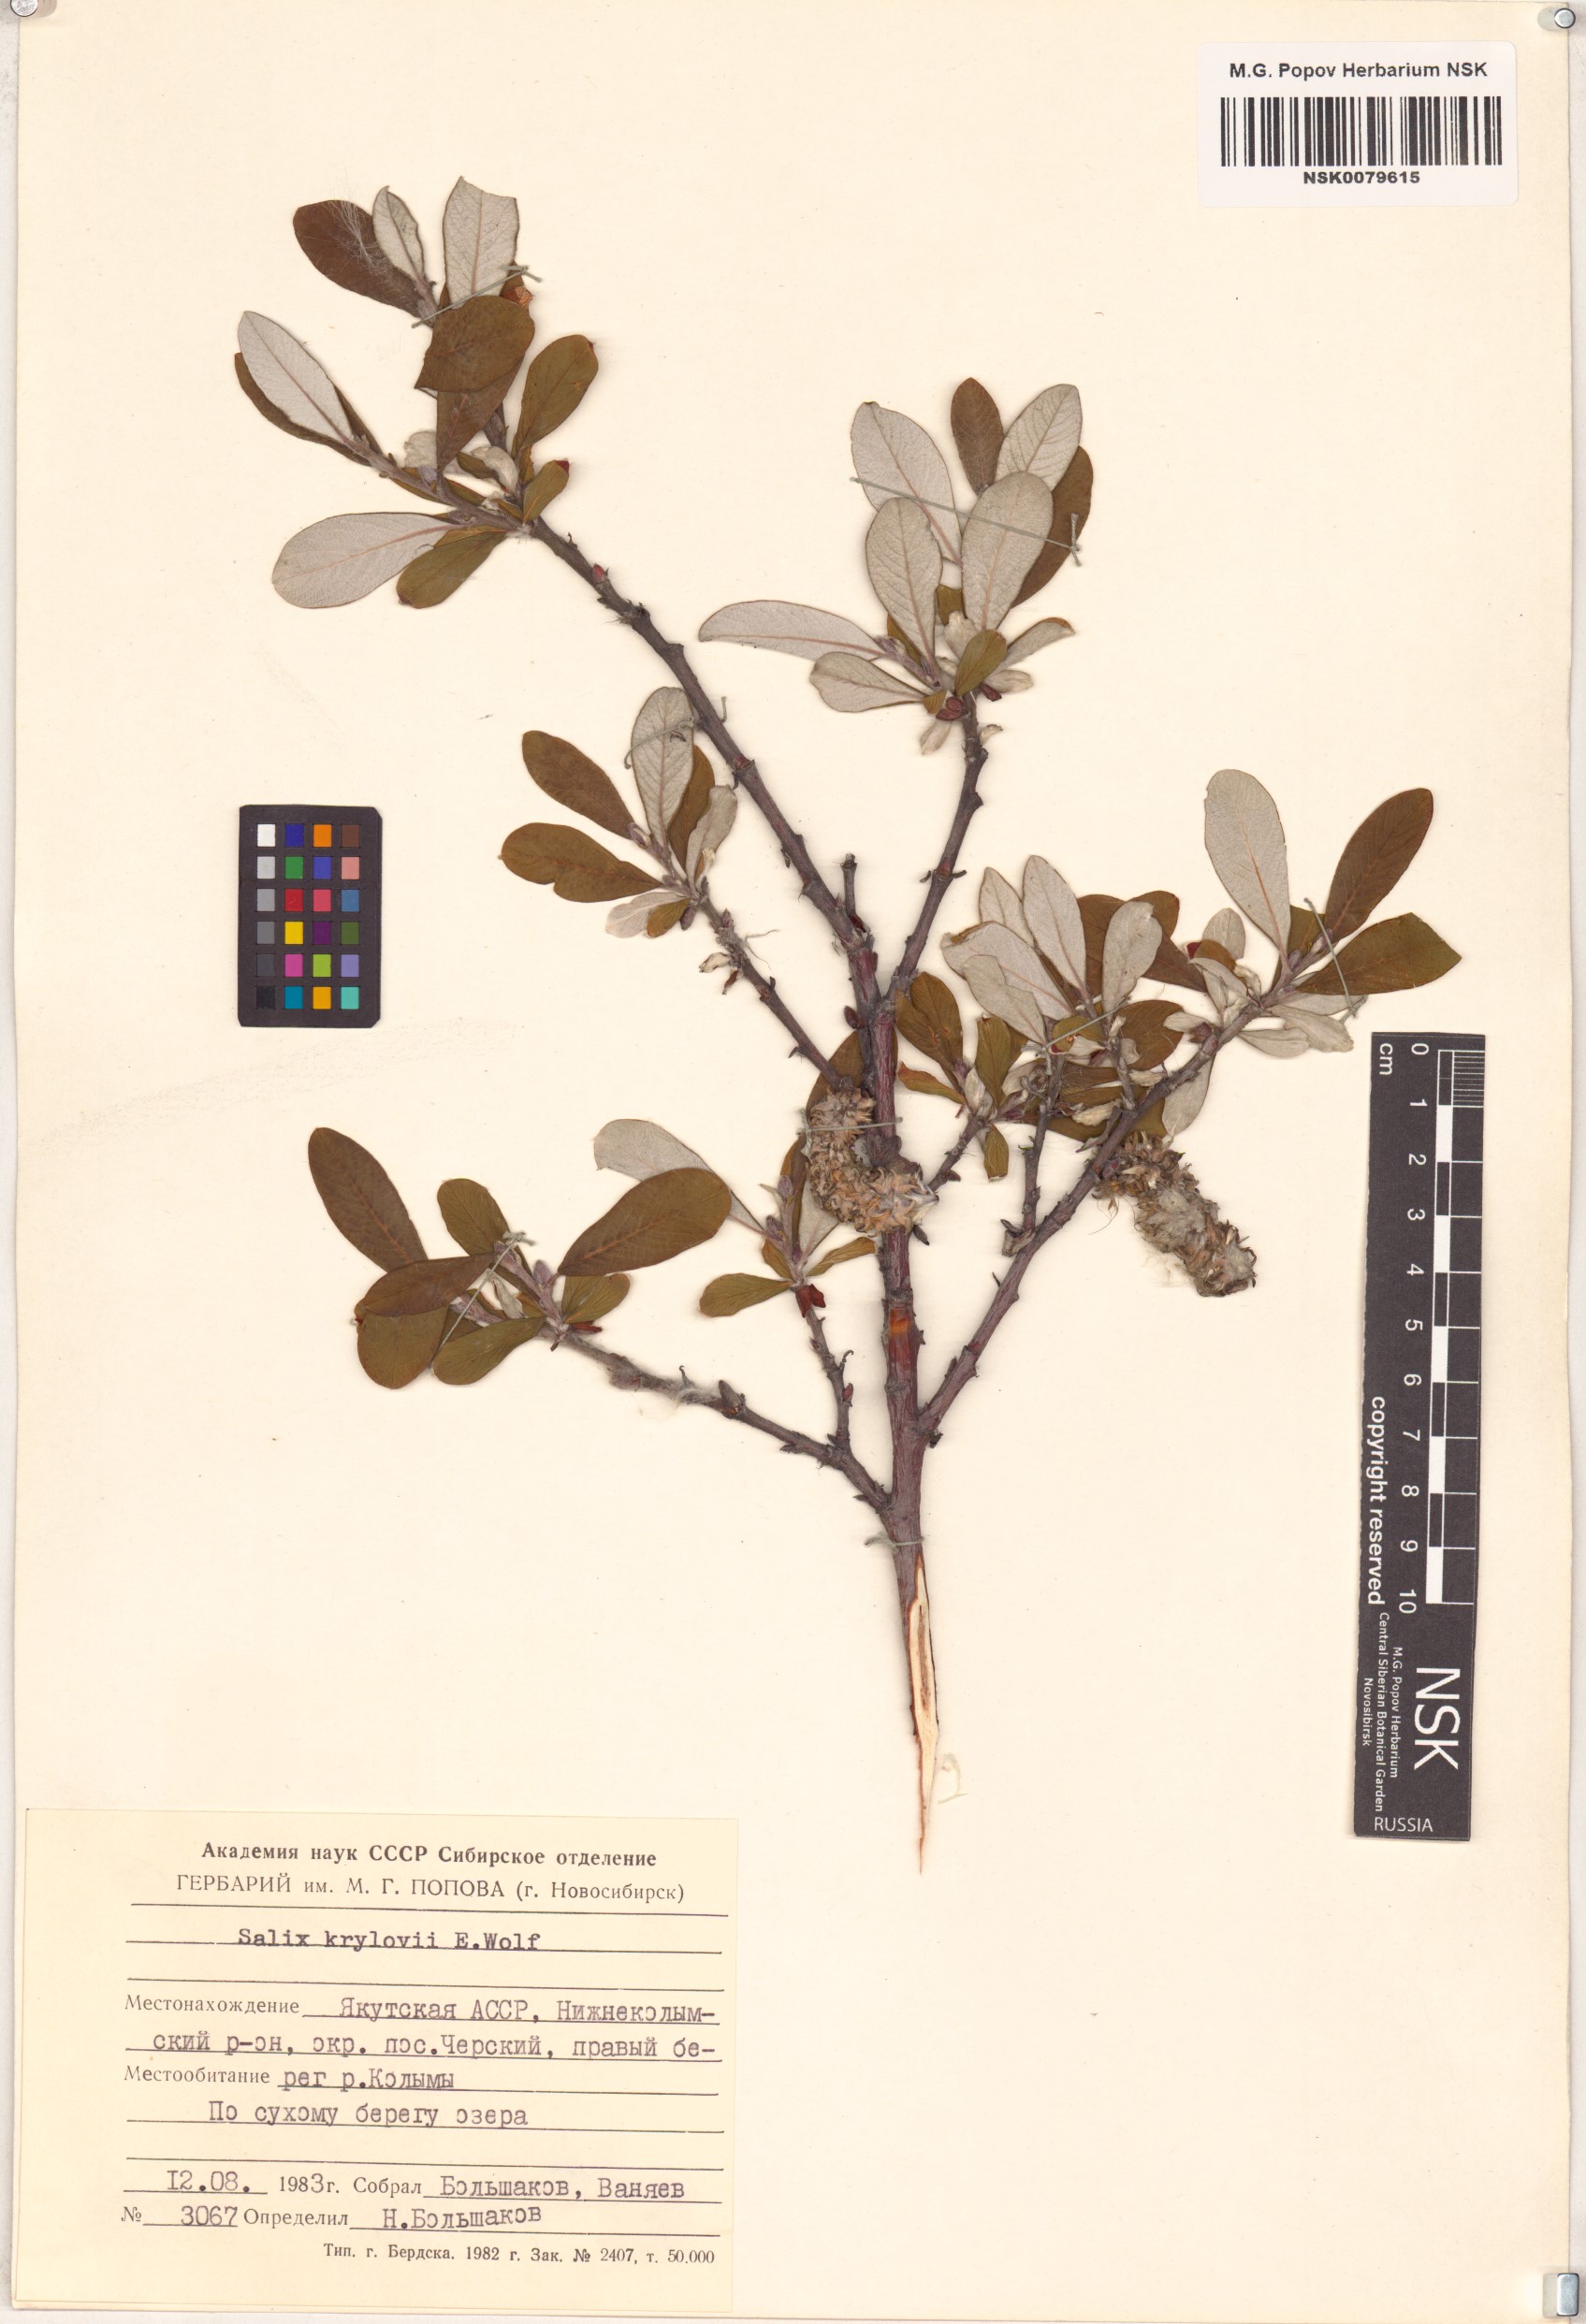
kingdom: Plantae
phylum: Tracheophyta
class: Magnoliopsida
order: Malpighiales
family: Salicaceae
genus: Salix
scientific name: Salix krylovii
